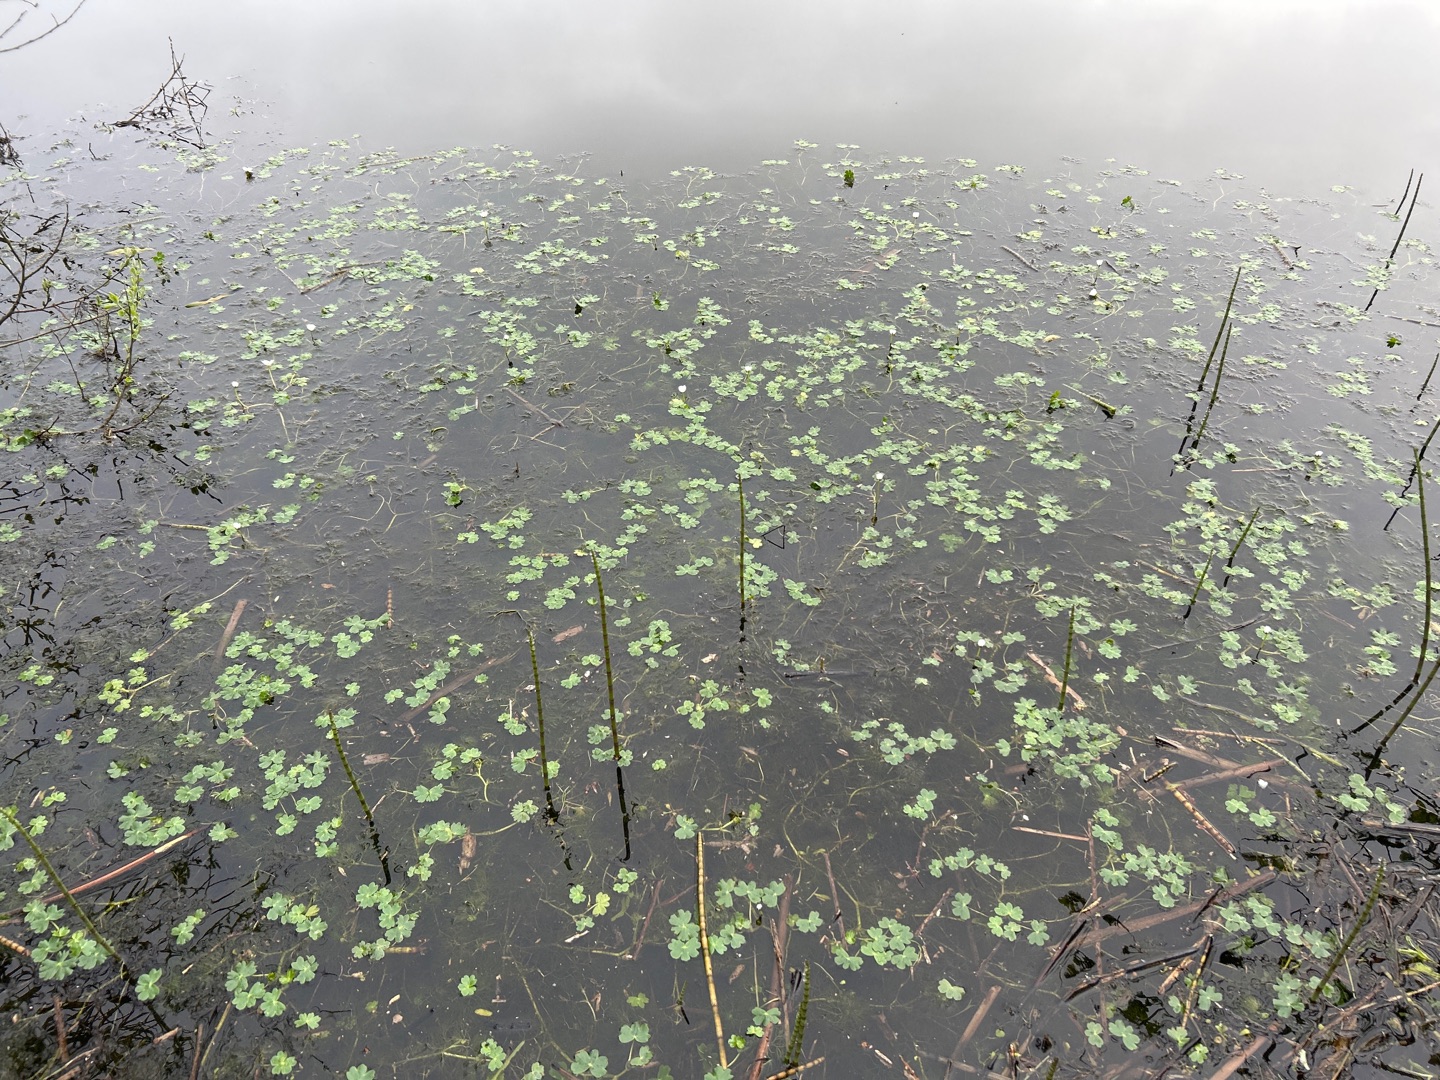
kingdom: Plantae
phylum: Tracheophyta
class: Magnoliopsida
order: Ranunculales
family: Ranunculaceae
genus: Ranunculus
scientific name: Ranunculus peltatus
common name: Storblomstret vandranunkel
